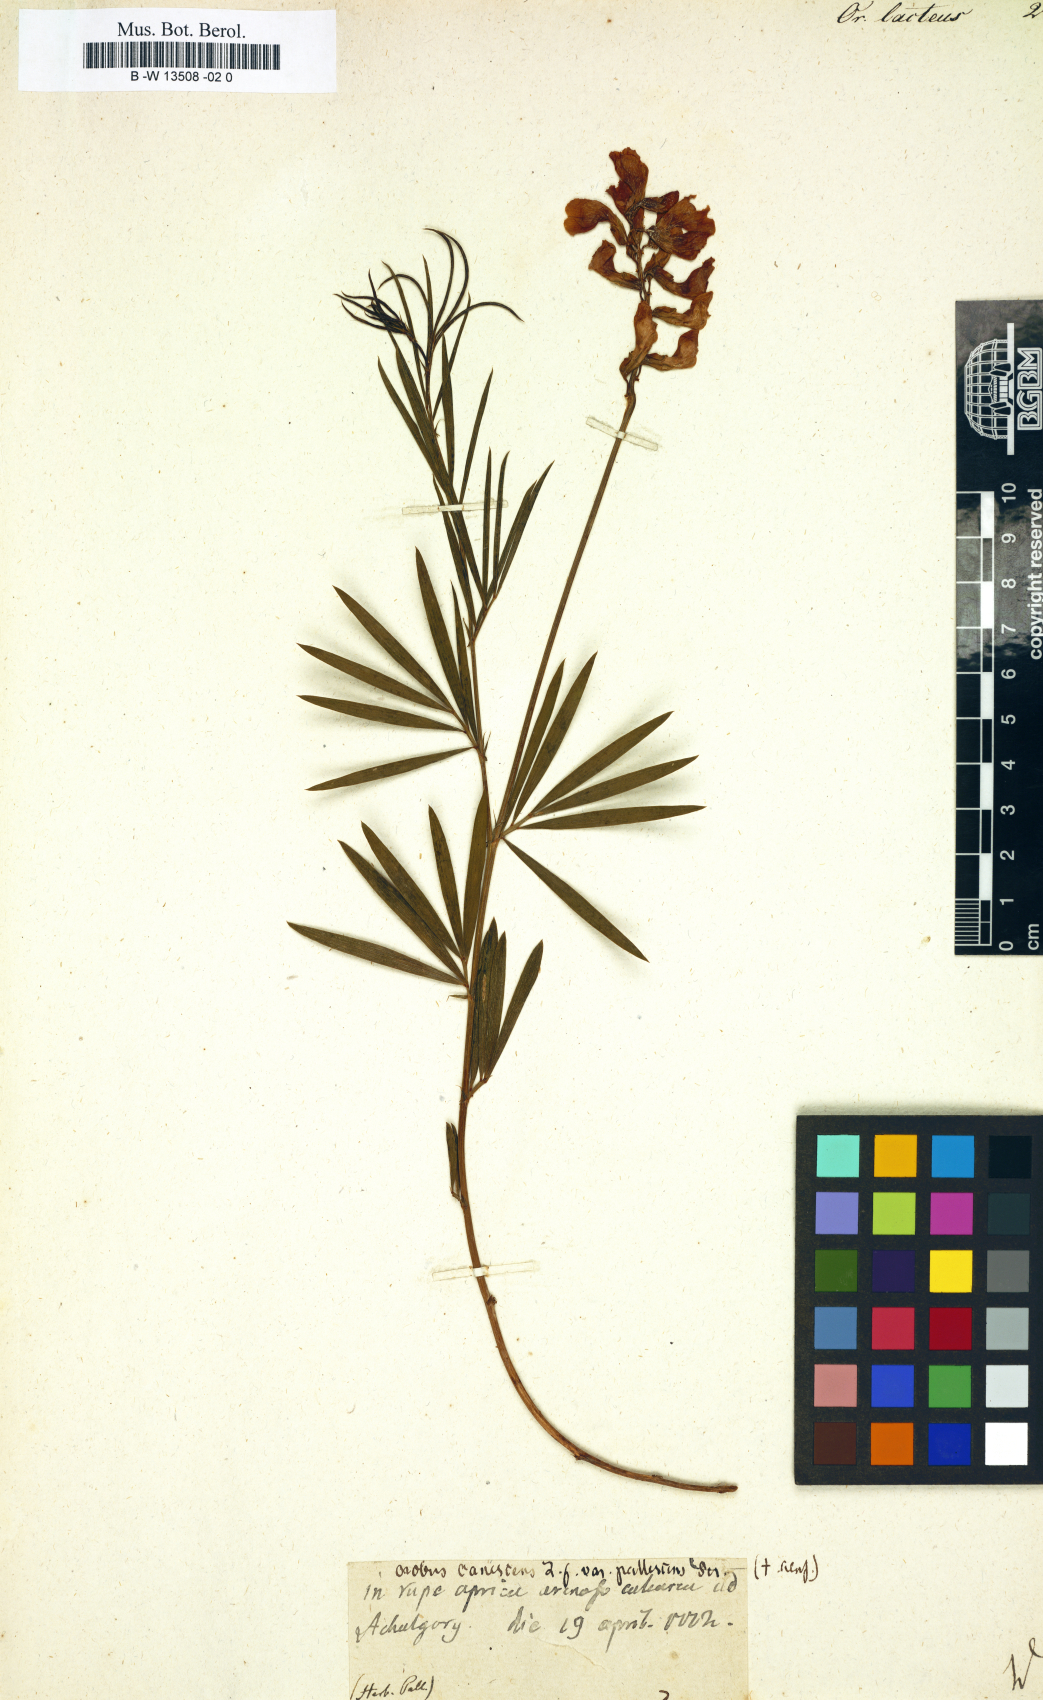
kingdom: Plantae
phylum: Tracheophyta
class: Magnoliopsida
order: Fabales
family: Fabaceae
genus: Lathyrus
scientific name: Lathyrus pannonicus
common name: Pea
